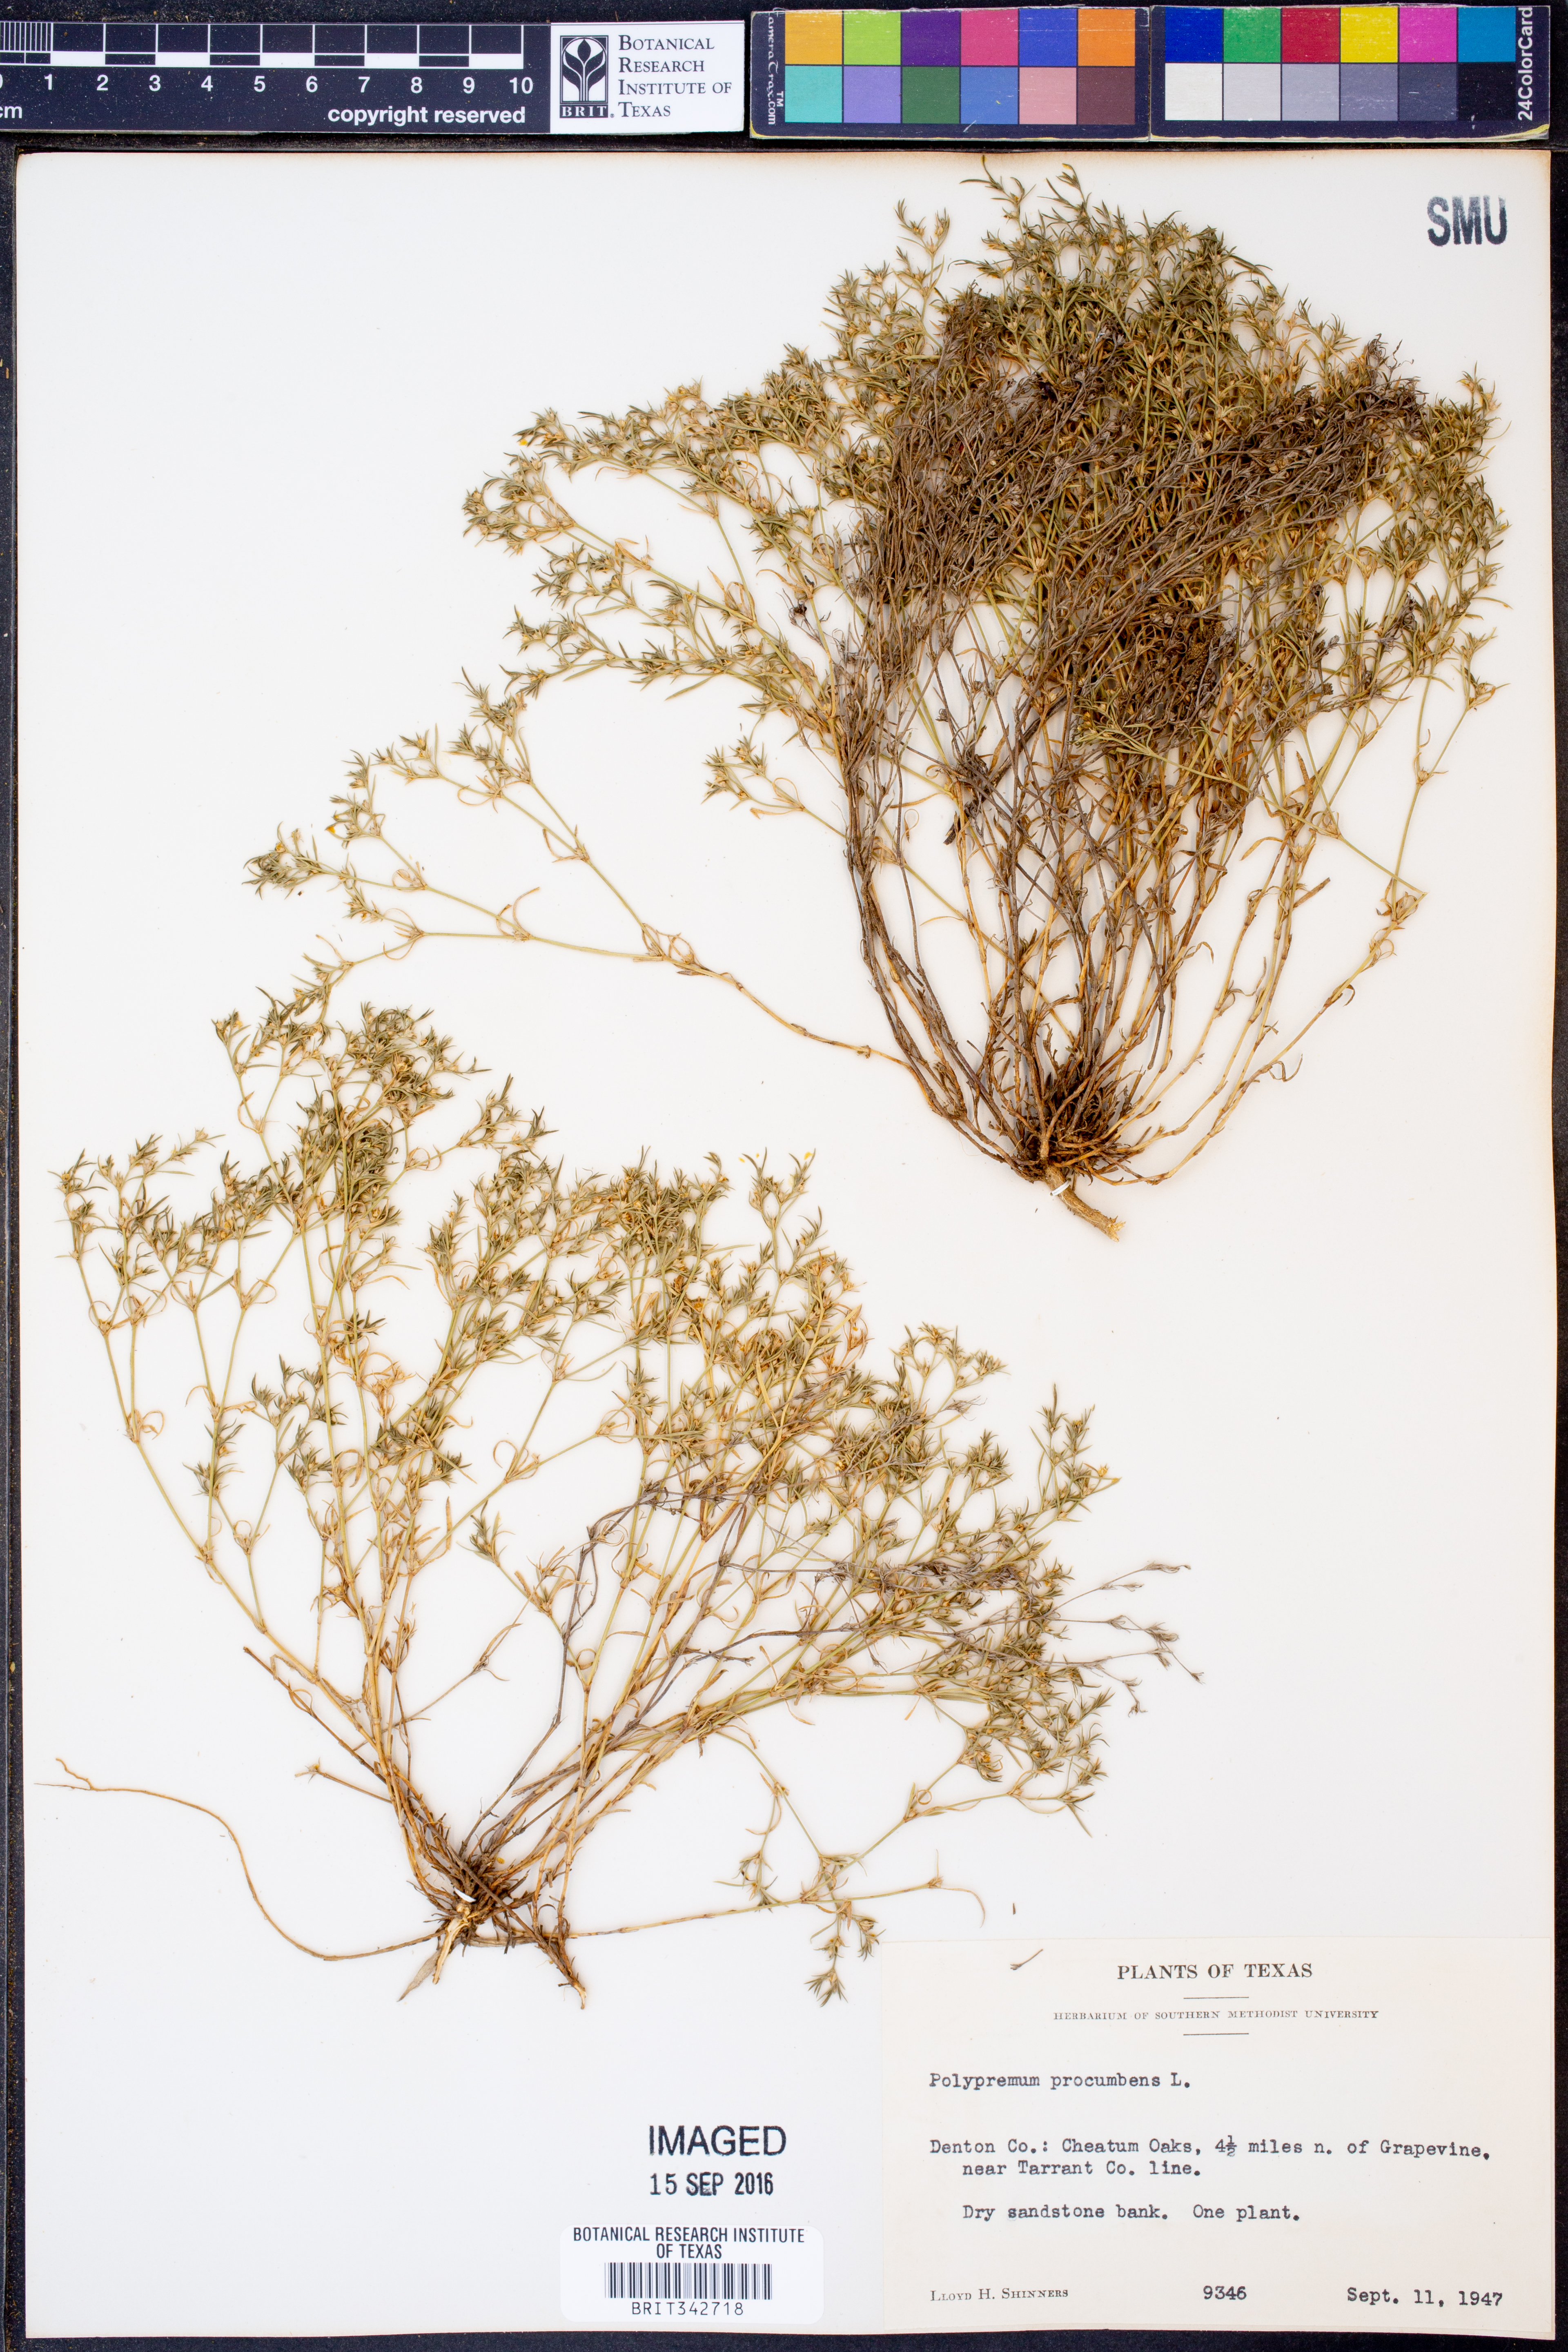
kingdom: Plantae
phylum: Tracheophyta
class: Magnoliopsida
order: Lamiales
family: Tetrachondraceae
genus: Polypremum
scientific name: Polypremum procumbens
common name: Juniper-leaf
